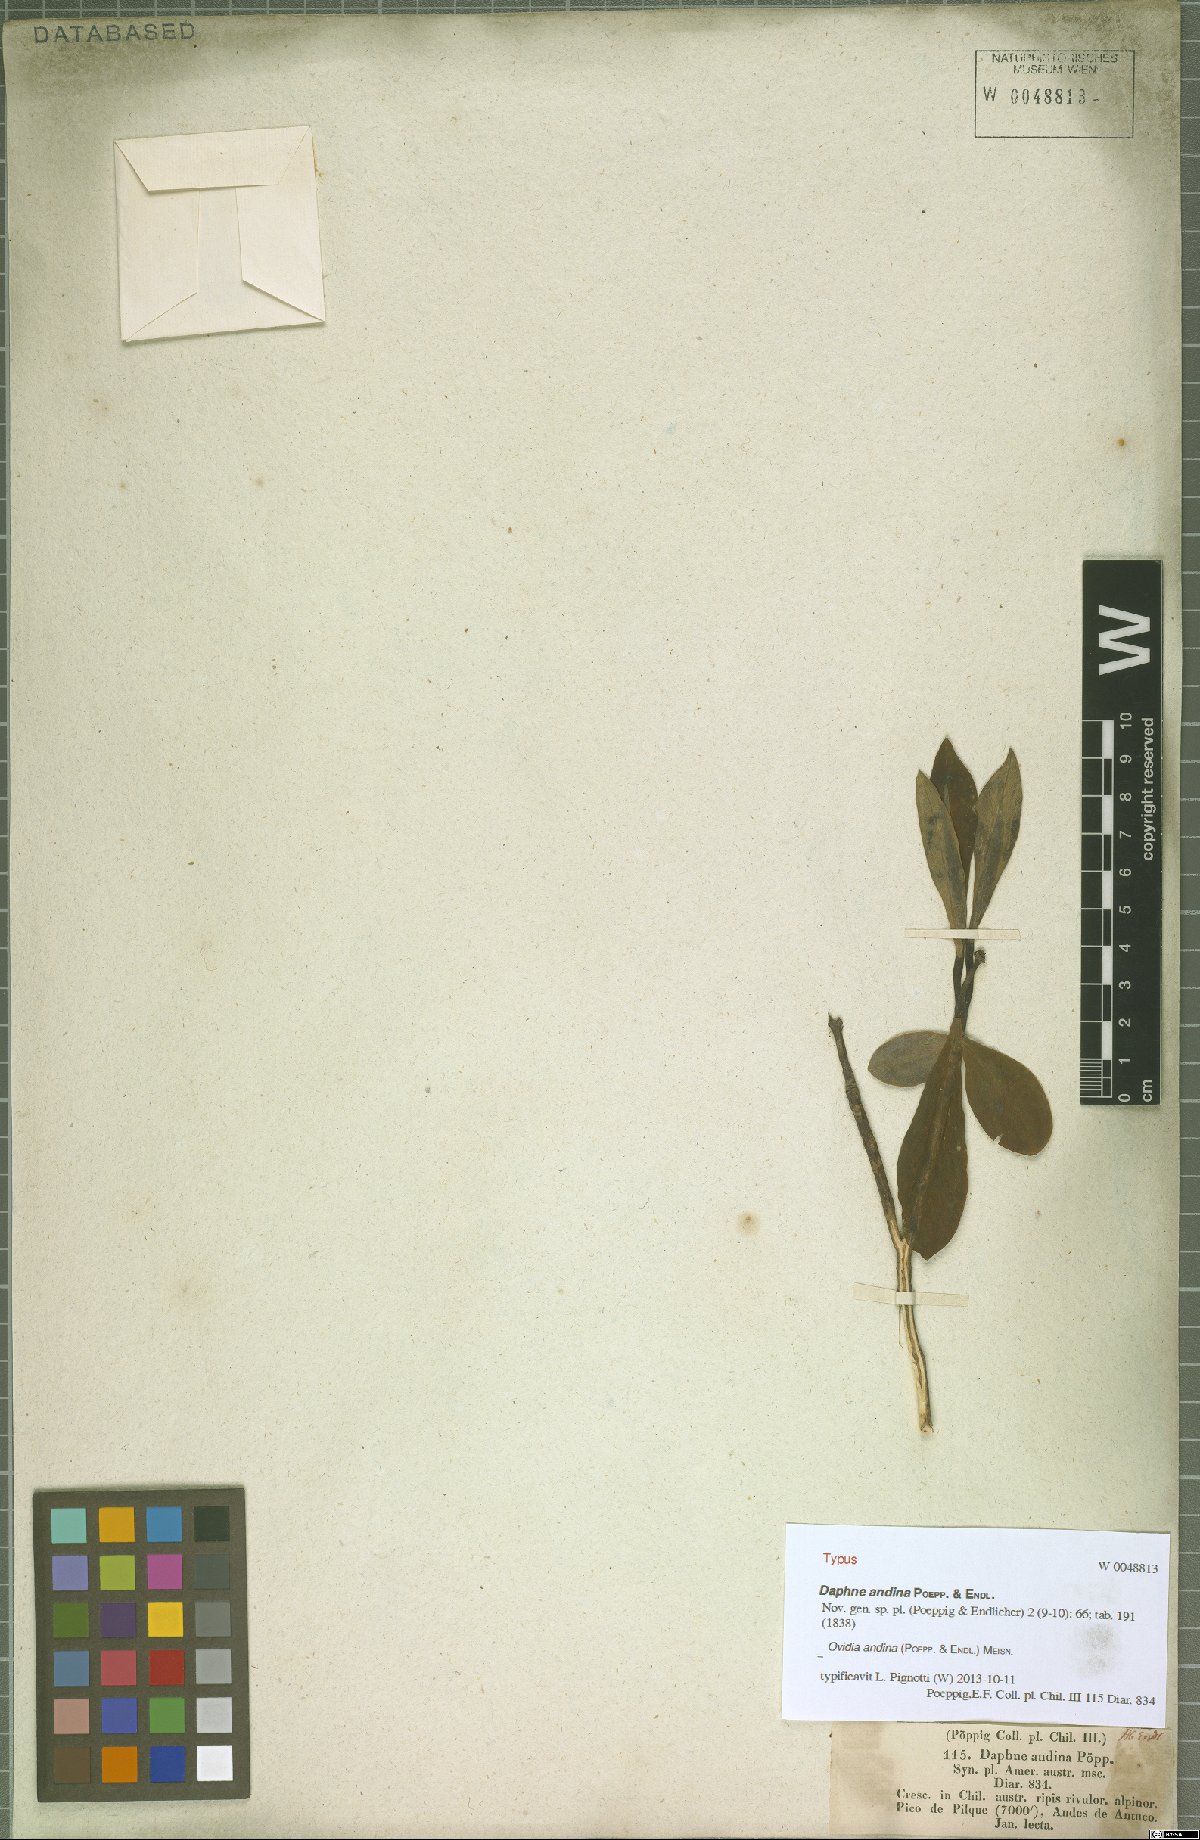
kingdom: Plantae
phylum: Tracheophyta
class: Magnoliopsida
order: Malvales
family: Thymelaeaceae
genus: Ovidia
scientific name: Ovidia andina
